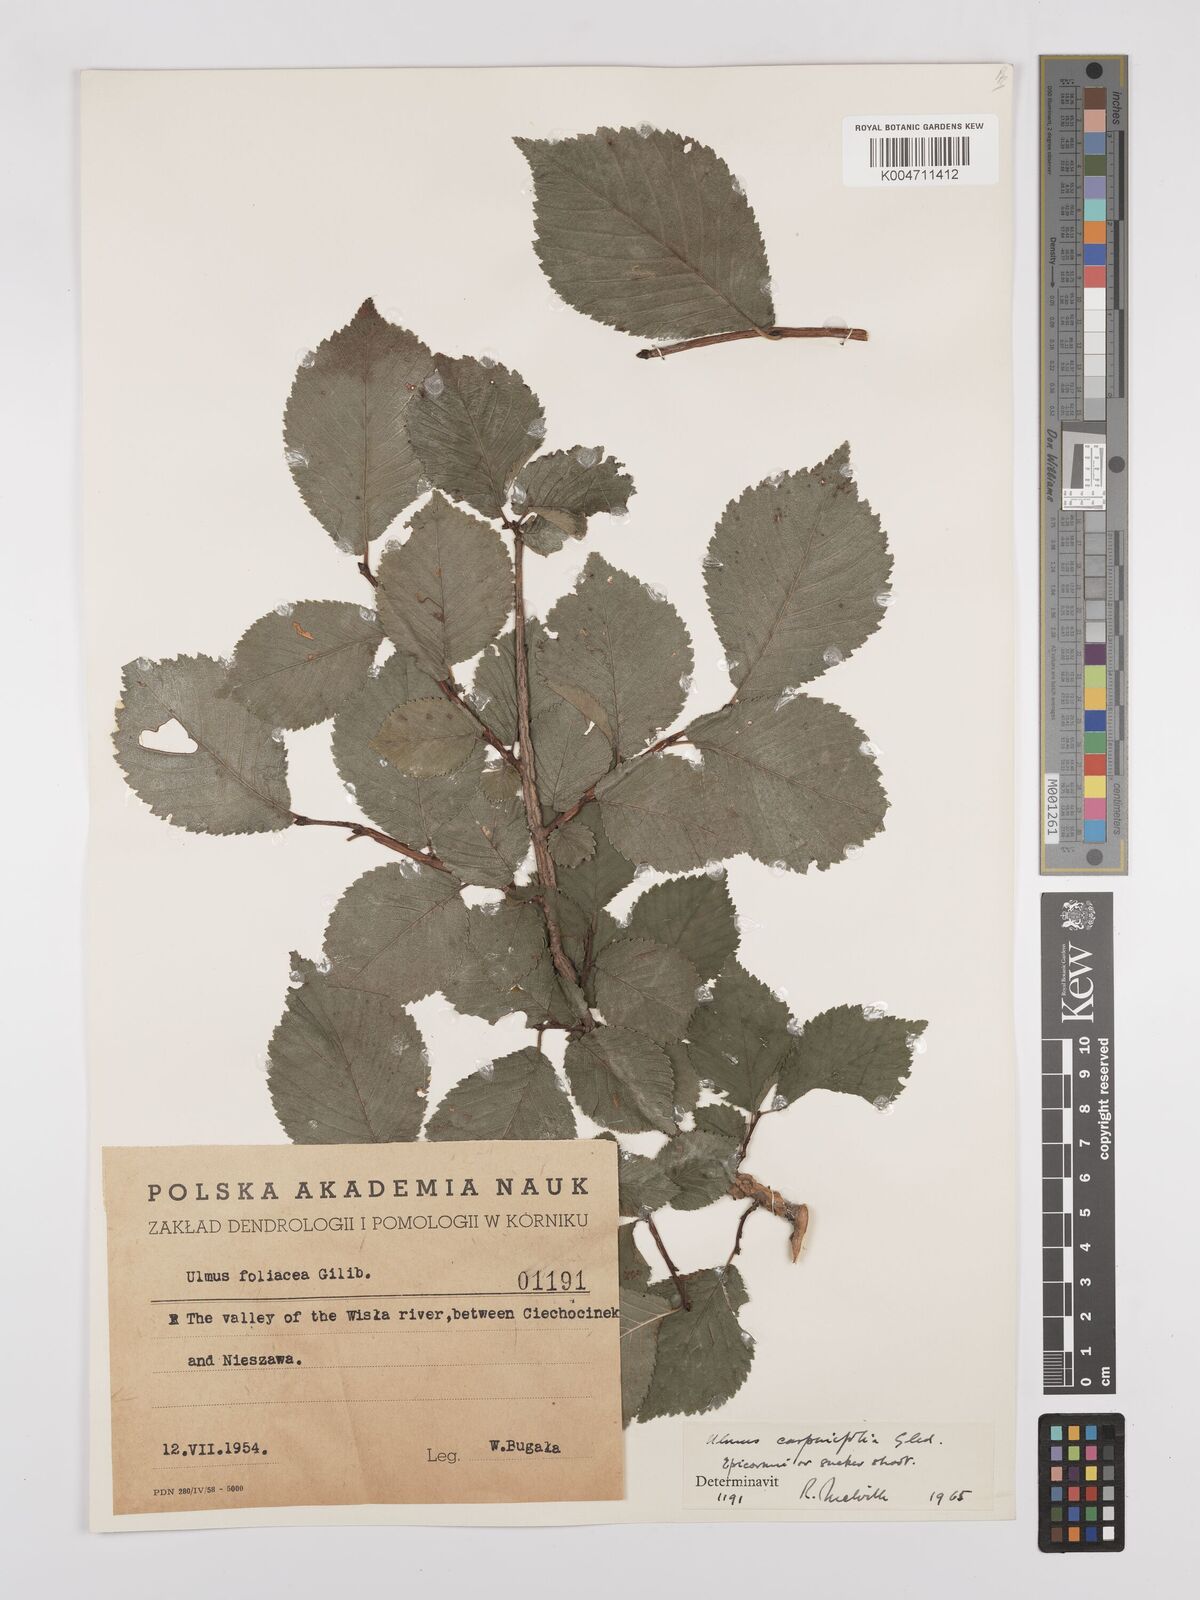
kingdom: Plantae
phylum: Tracheophyta
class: Magnoliopsida
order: Rosales
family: Ulmaceae
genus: Ulmus
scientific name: Ulmus minor
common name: Small-leaved elm
